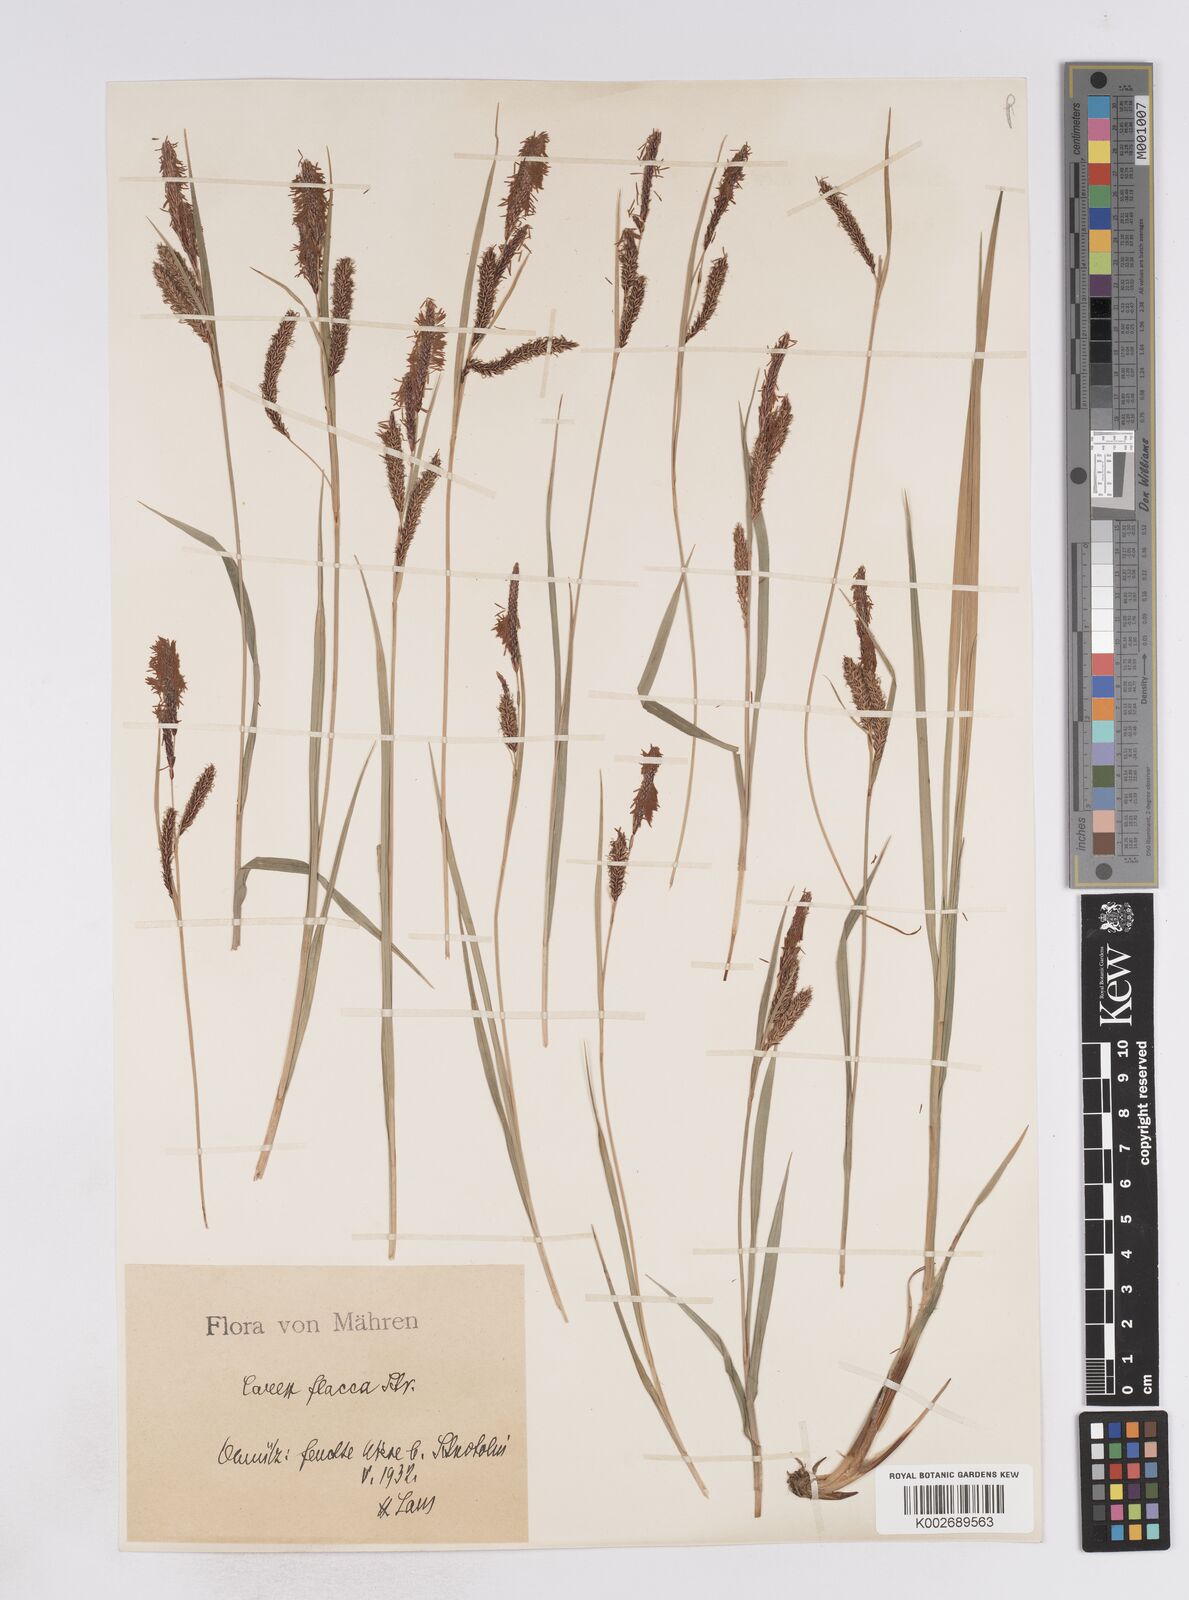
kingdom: Plantae
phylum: Tracheophyta
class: Liliopsida
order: Poales
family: Cyperaceae
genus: Carex
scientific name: Carex flacca
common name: Glaucous sedge
